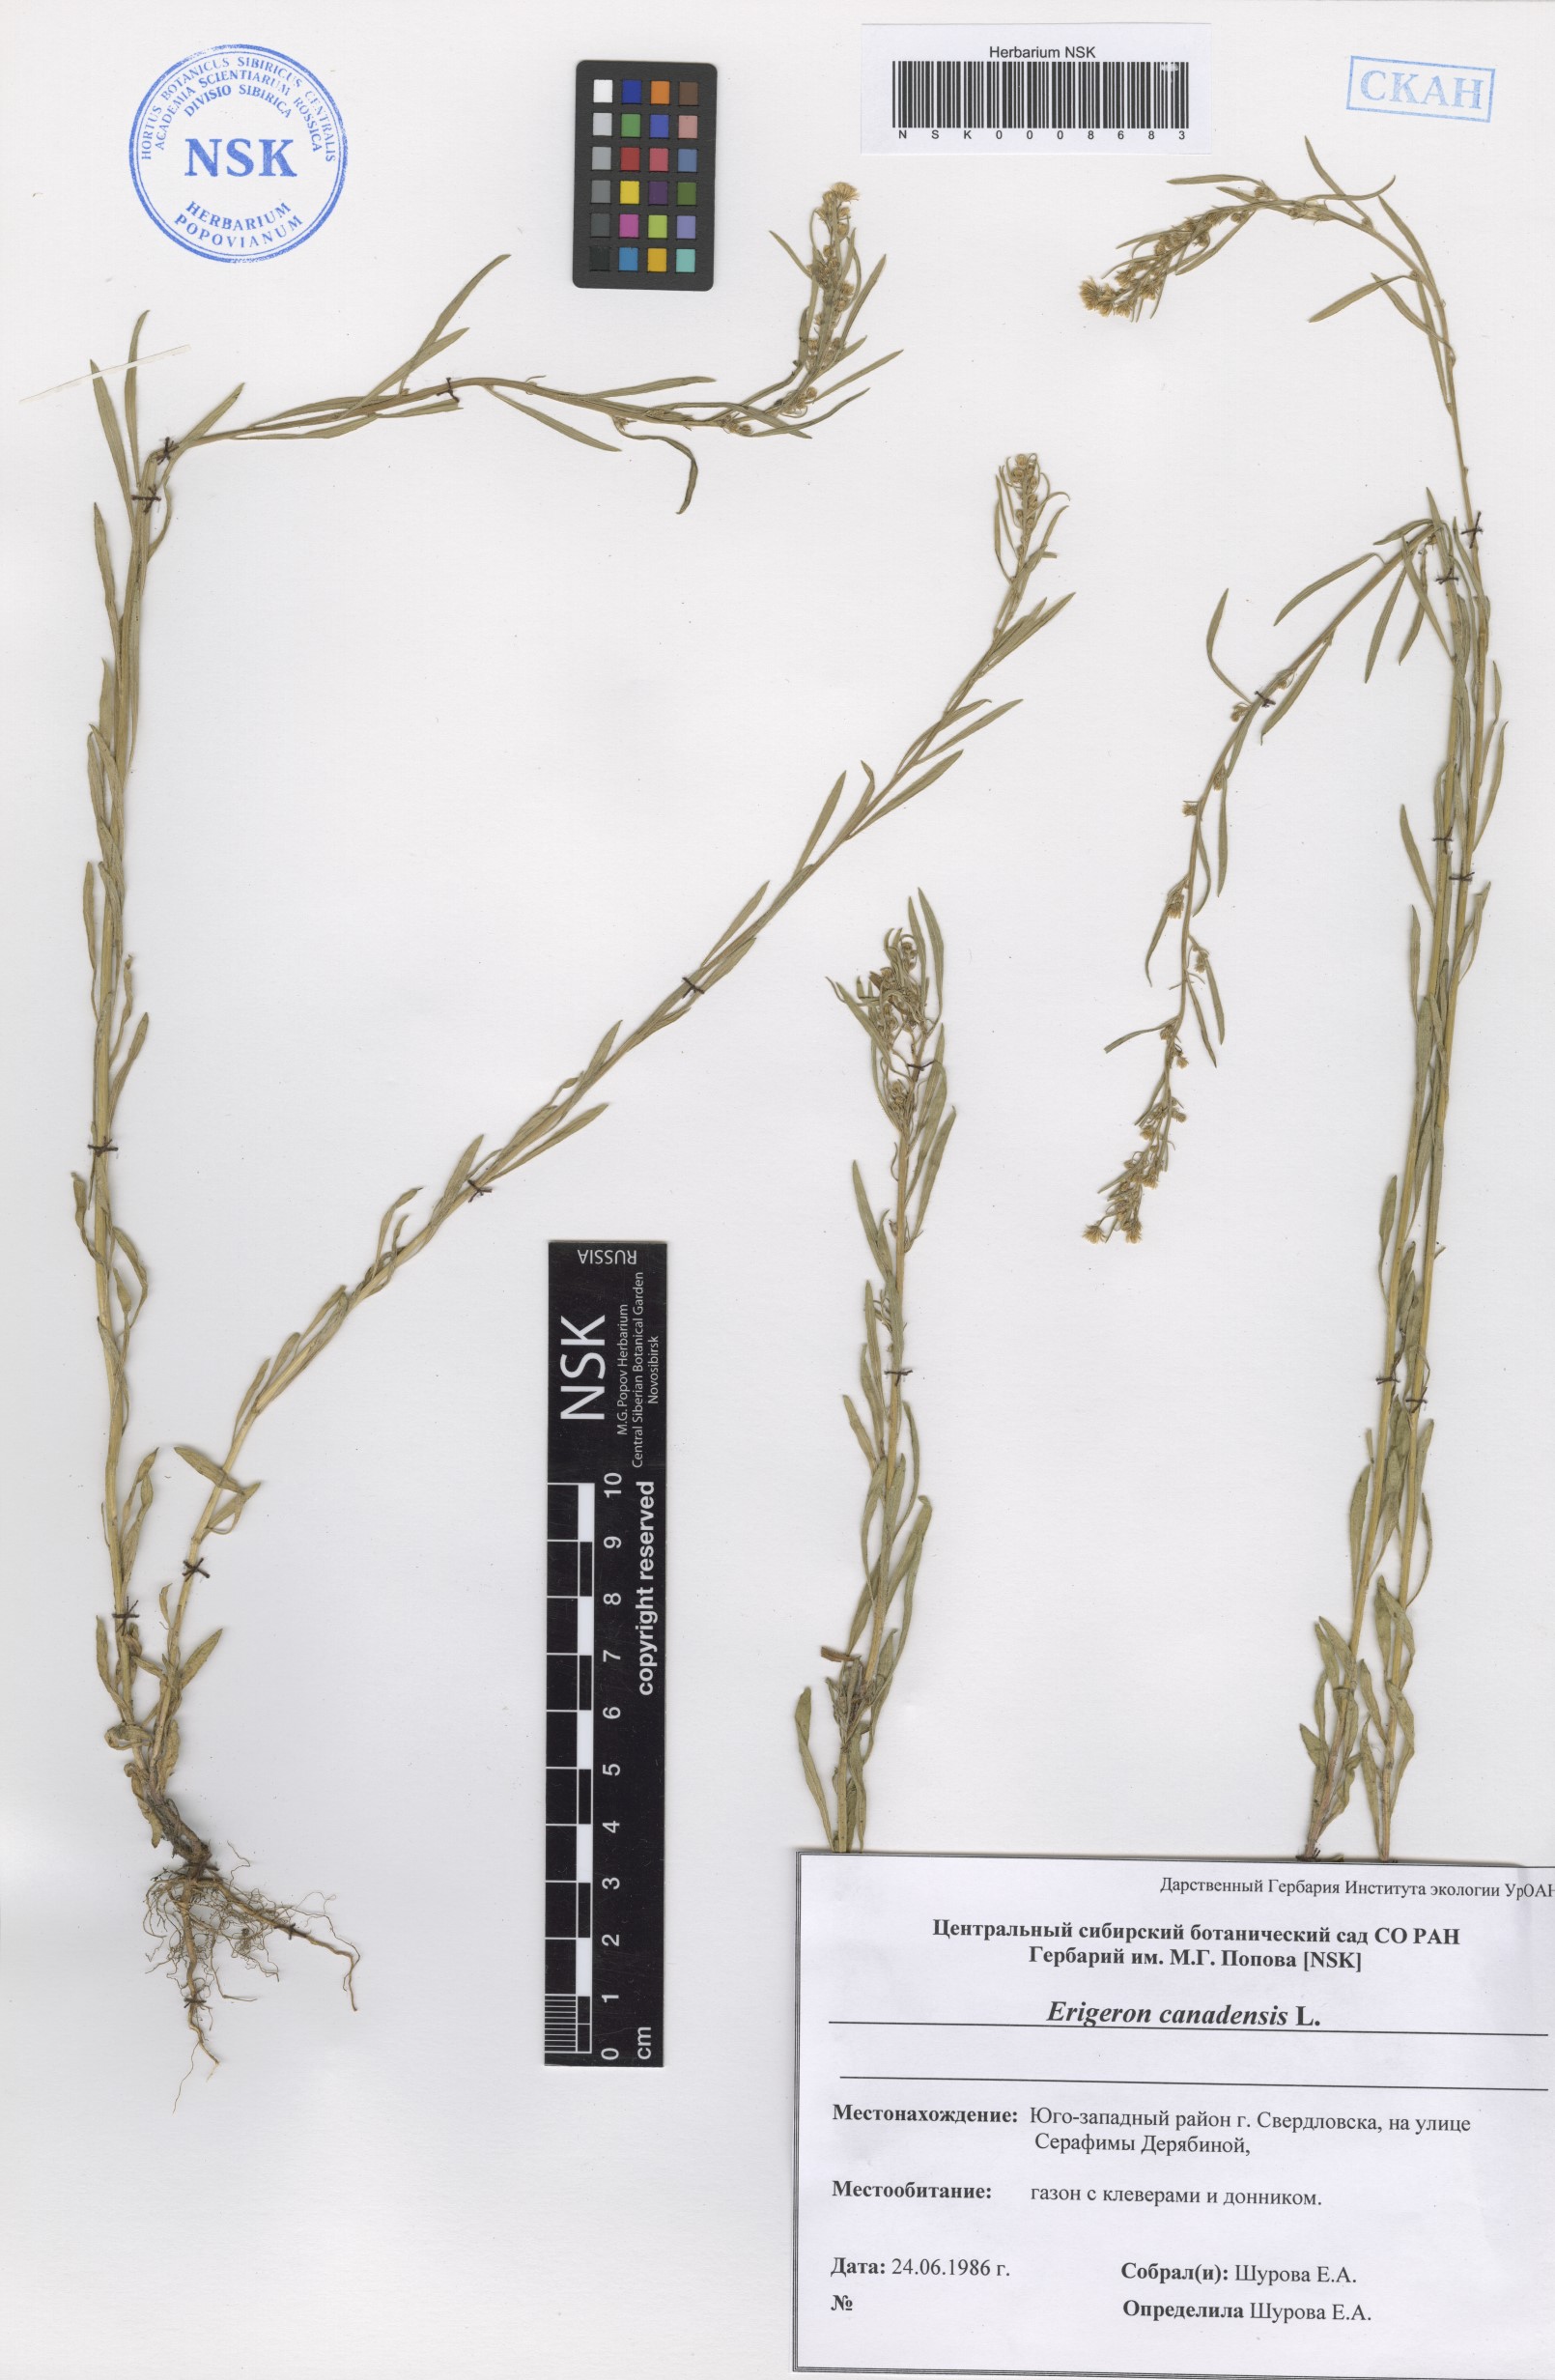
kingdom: Plantae
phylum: Tracheophyta
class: Magnoliopsida
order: Asterales
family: Asteraceae
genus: Erigeron
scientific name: Erigeron canadensis
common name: Canadian fleabane
